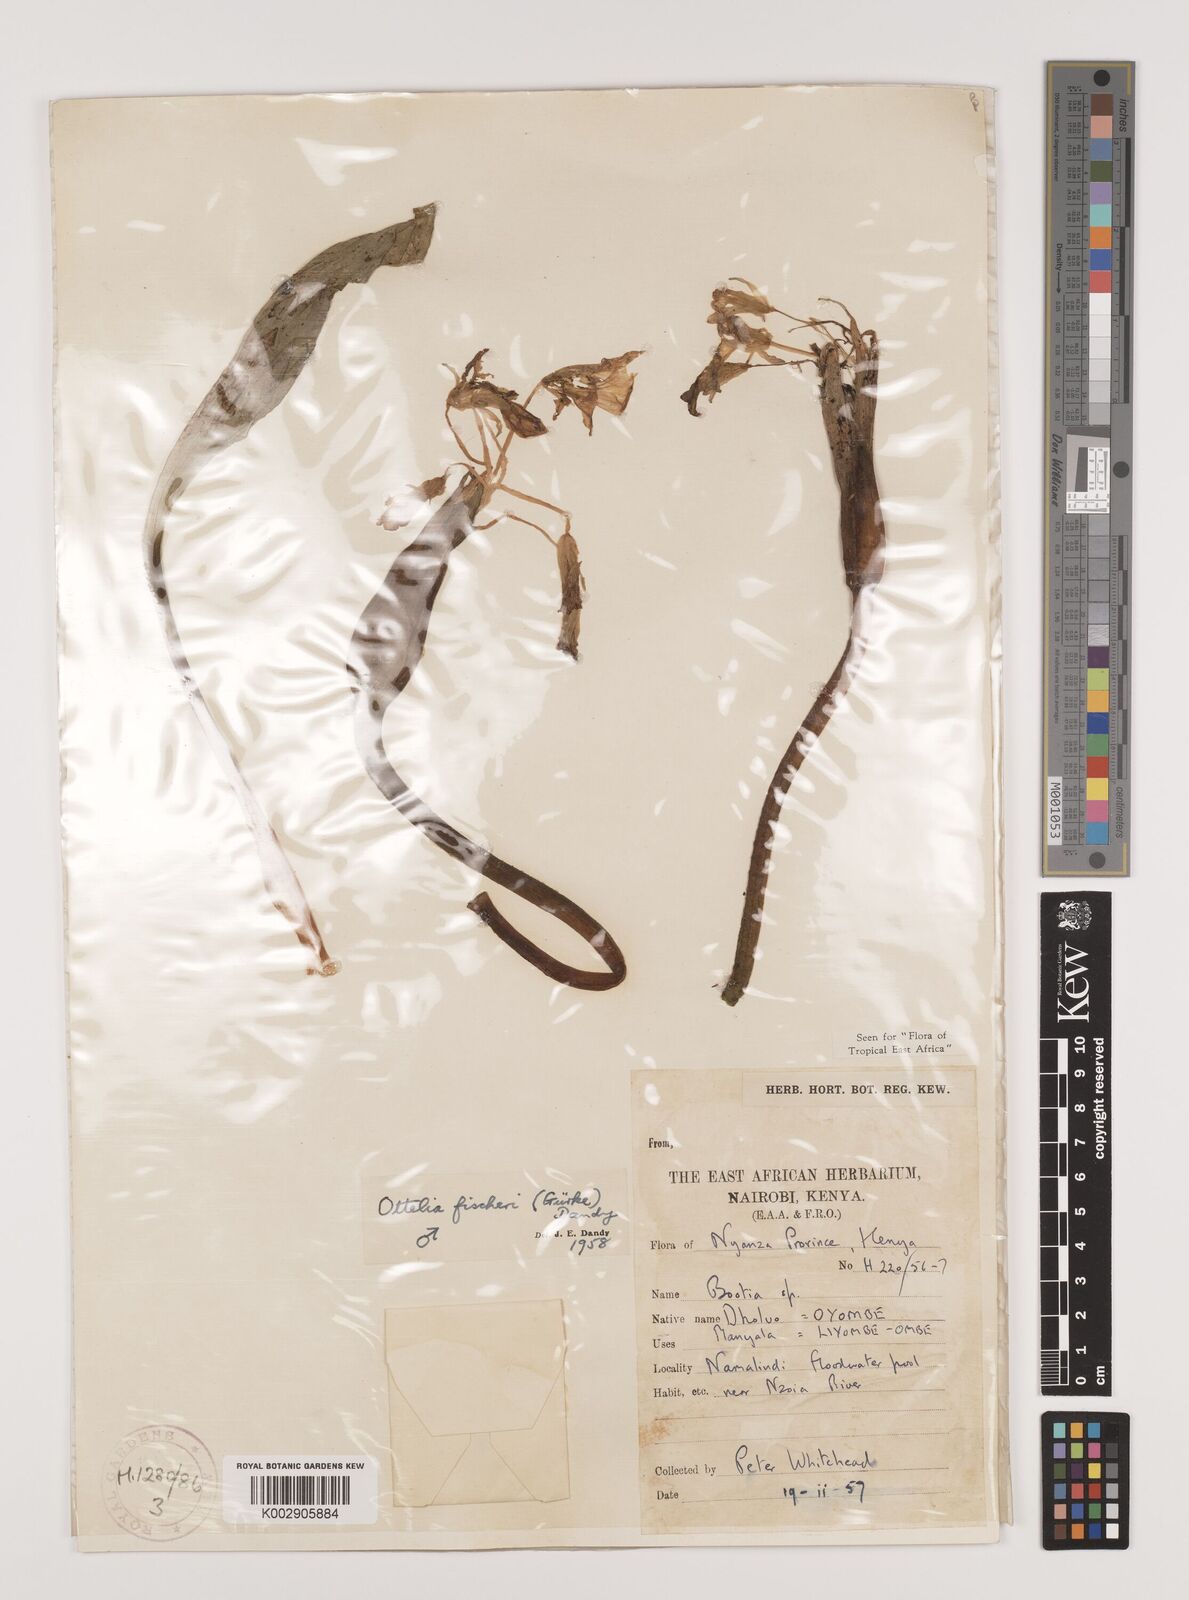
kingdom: Plantae
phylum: Tracheophyta
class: Liliopsida
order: Alismatales
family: Hydrocharitaceae
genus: Ottelia
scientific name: Ottelia fischeri
